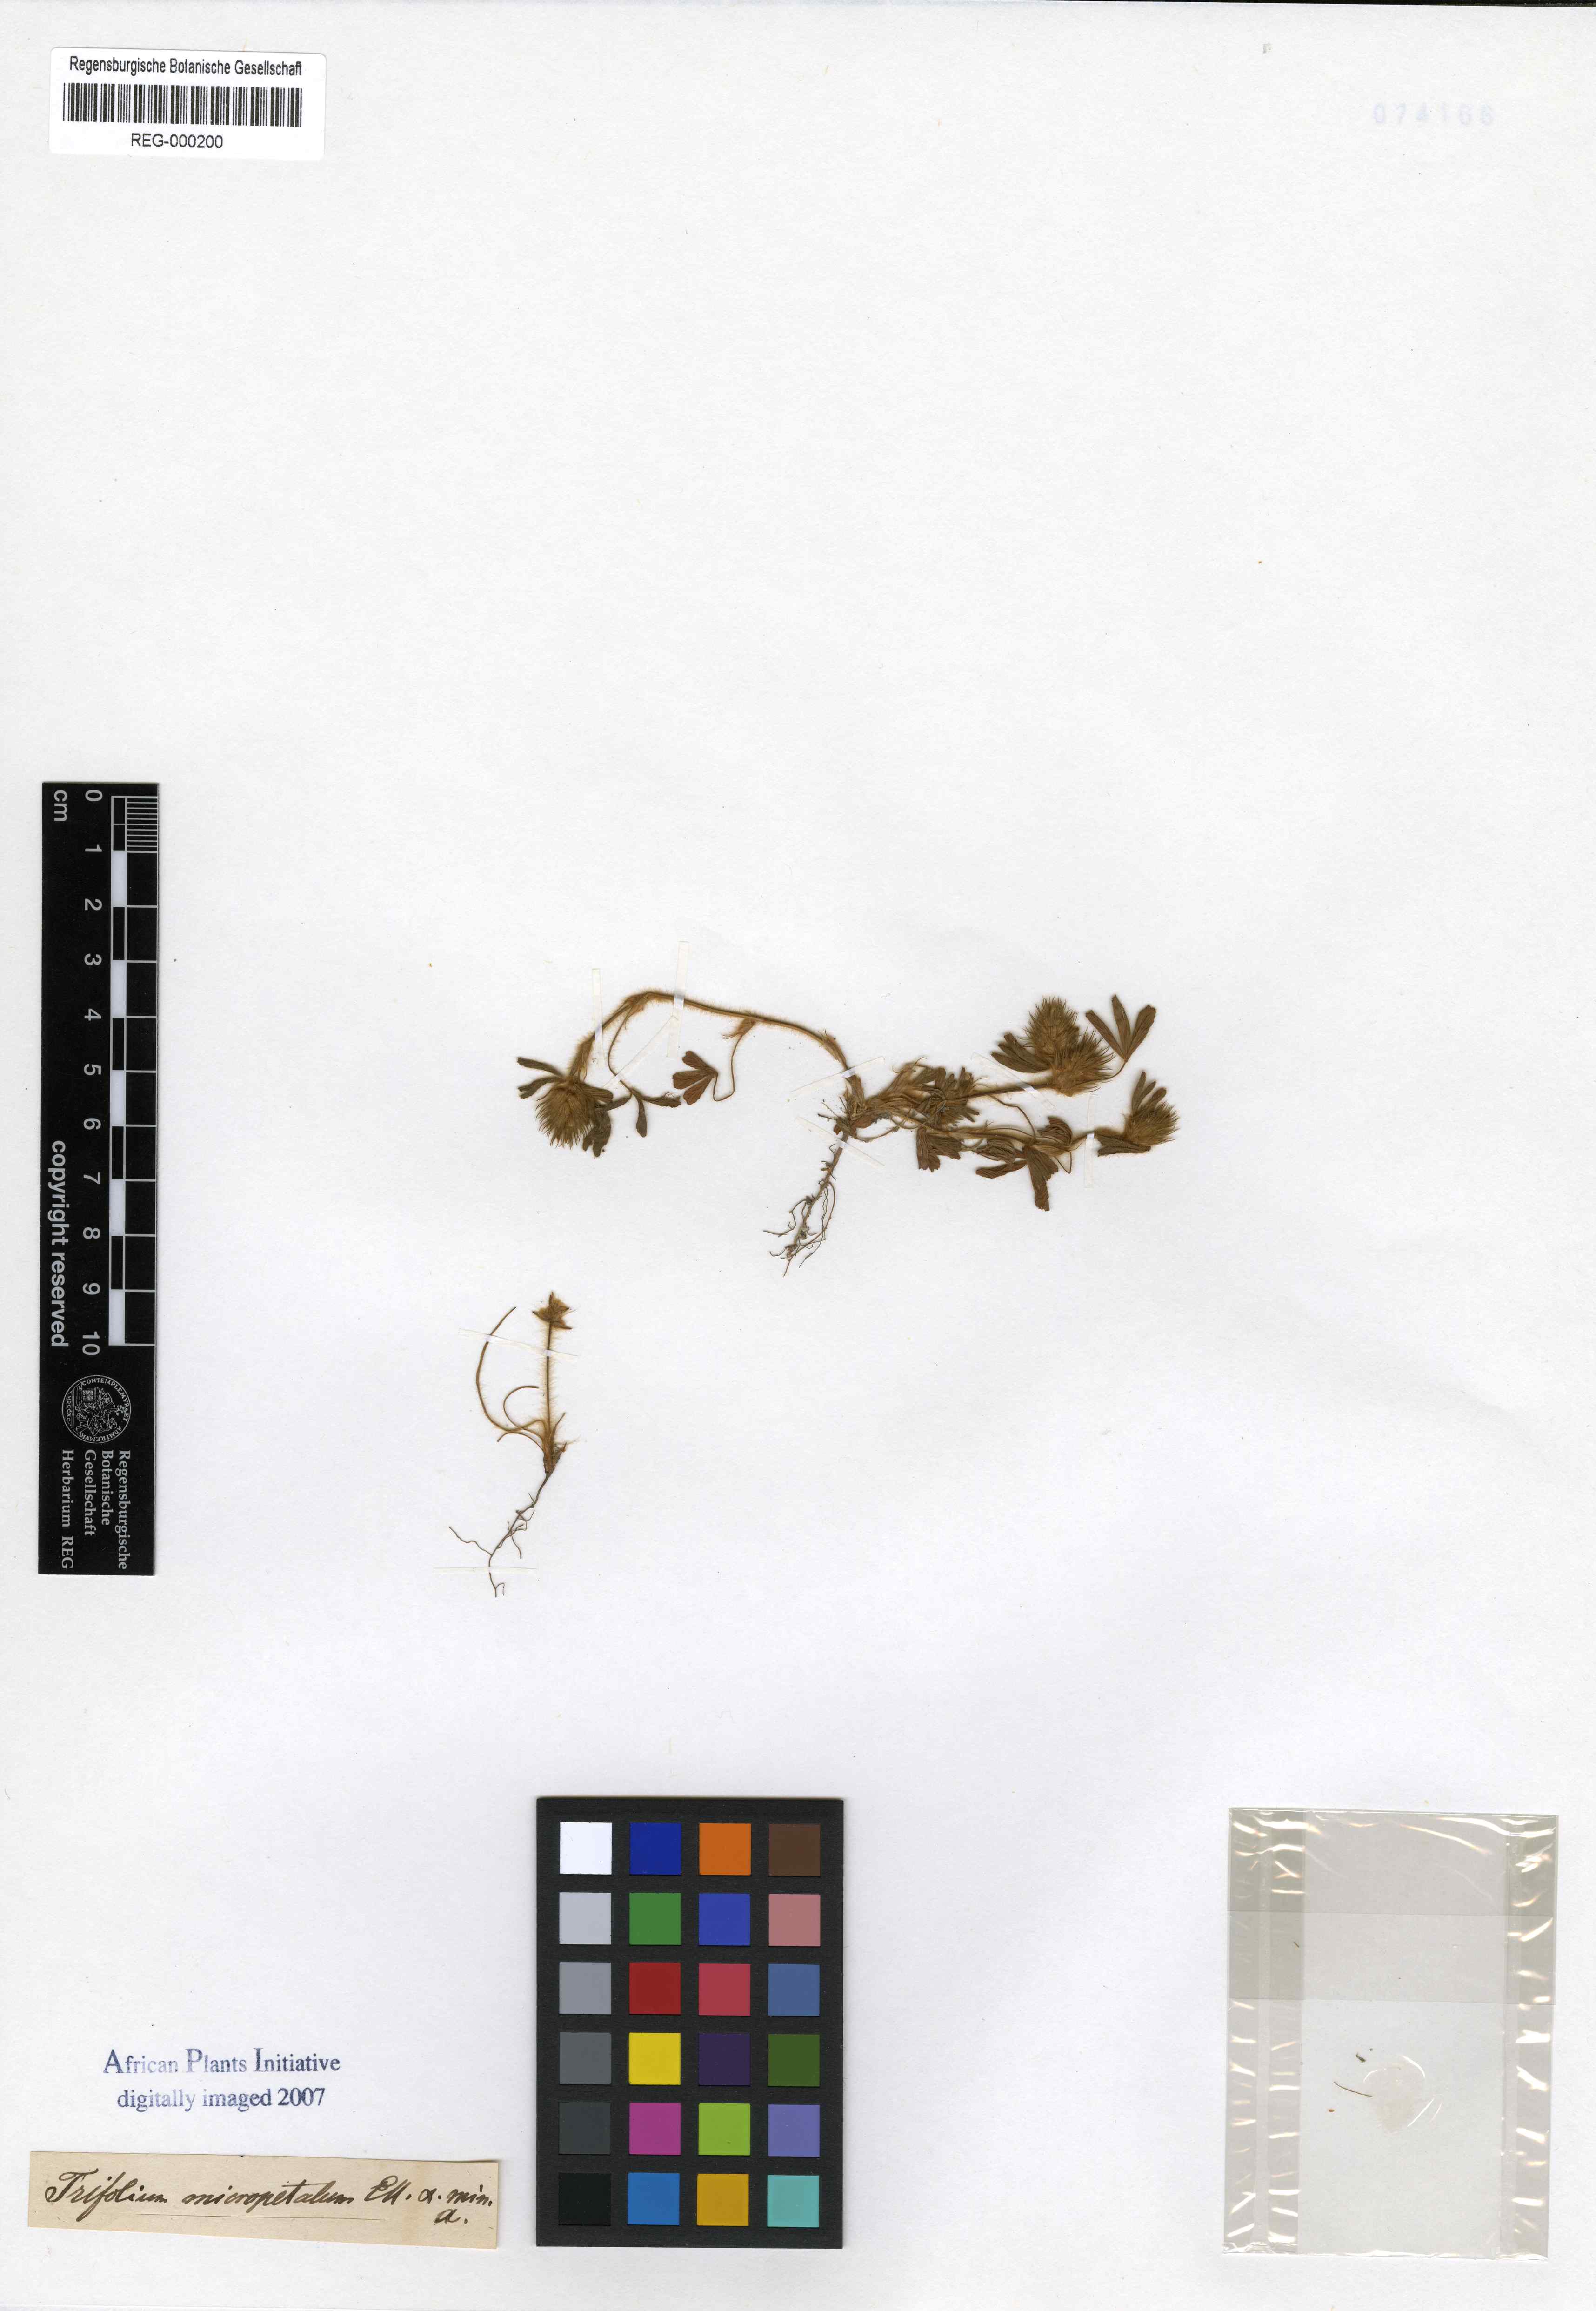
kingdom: Plantae
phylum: Tracheophyta
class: Magnoliopsida
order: Fabales
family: Fabaceae
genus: Trifolium
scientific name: Trifolium stipulaceum
